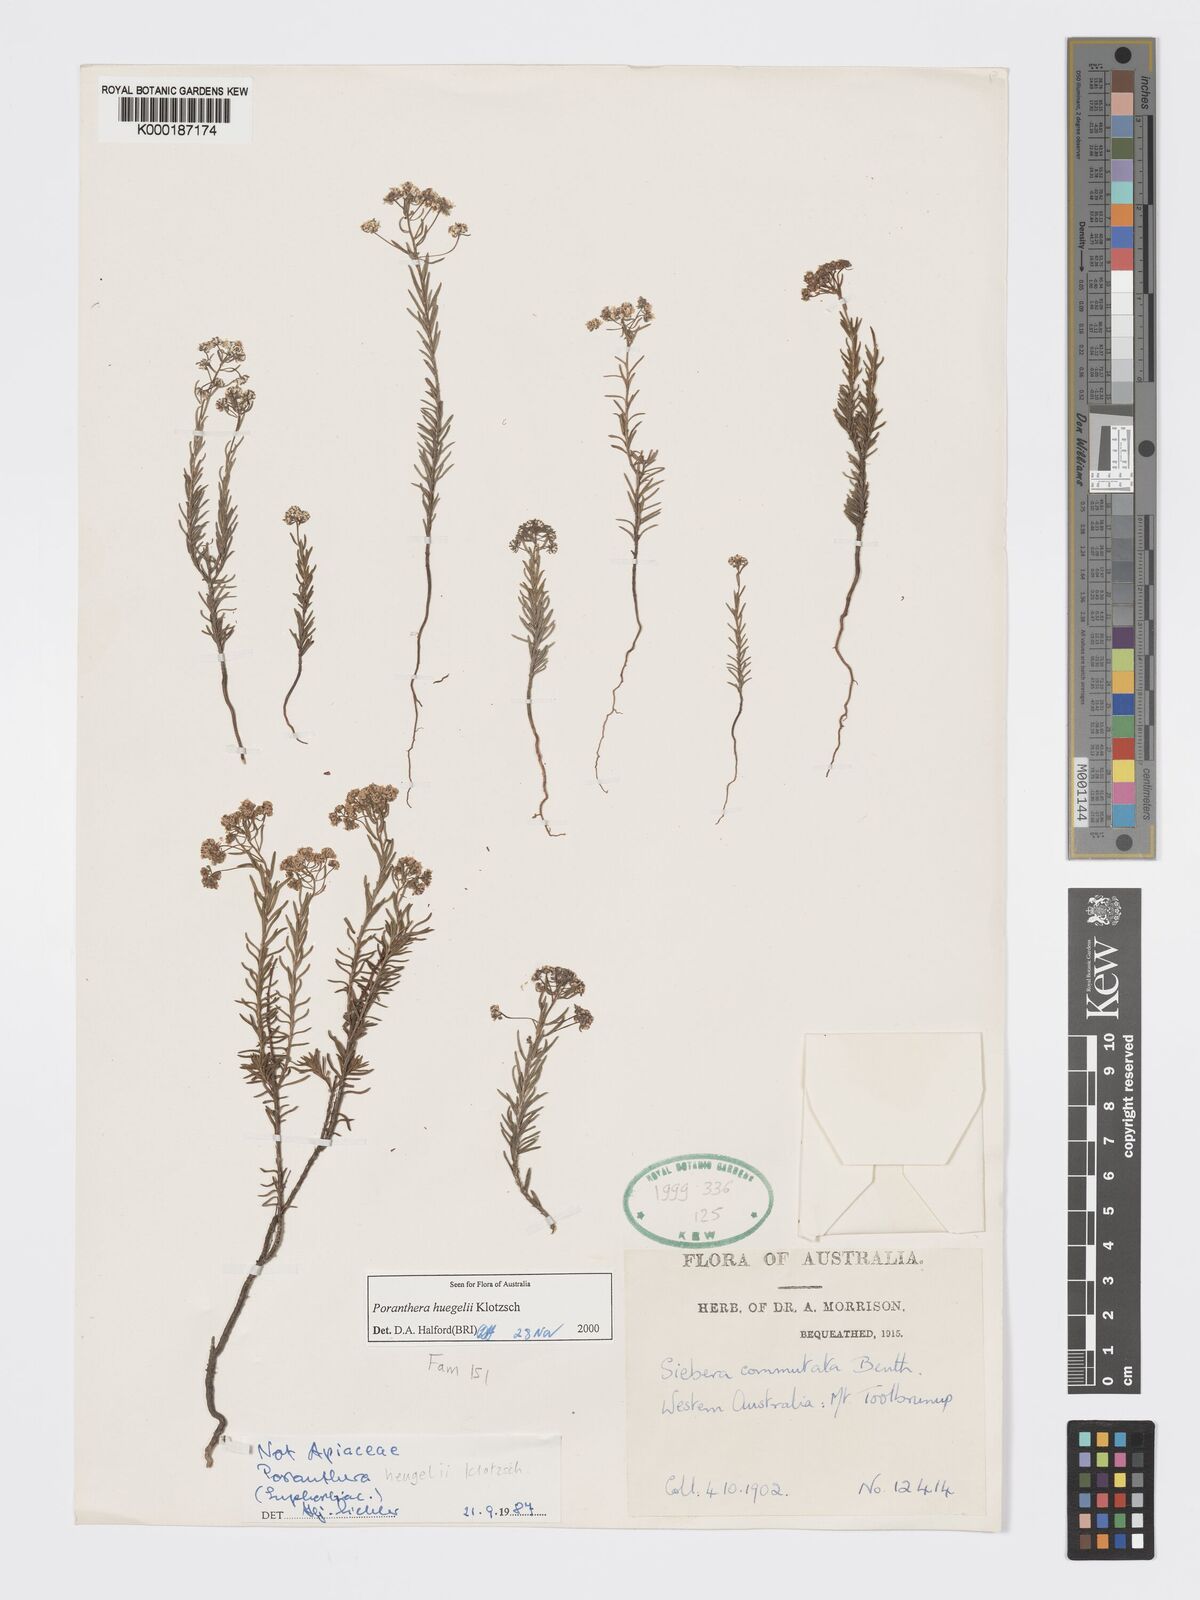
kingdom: Plantae
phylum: Tracheophyta
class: Magnoliopsida
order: Malpighiales
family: Phyllanthaceae
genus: Poranthera
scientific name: Poranthera huegelii
